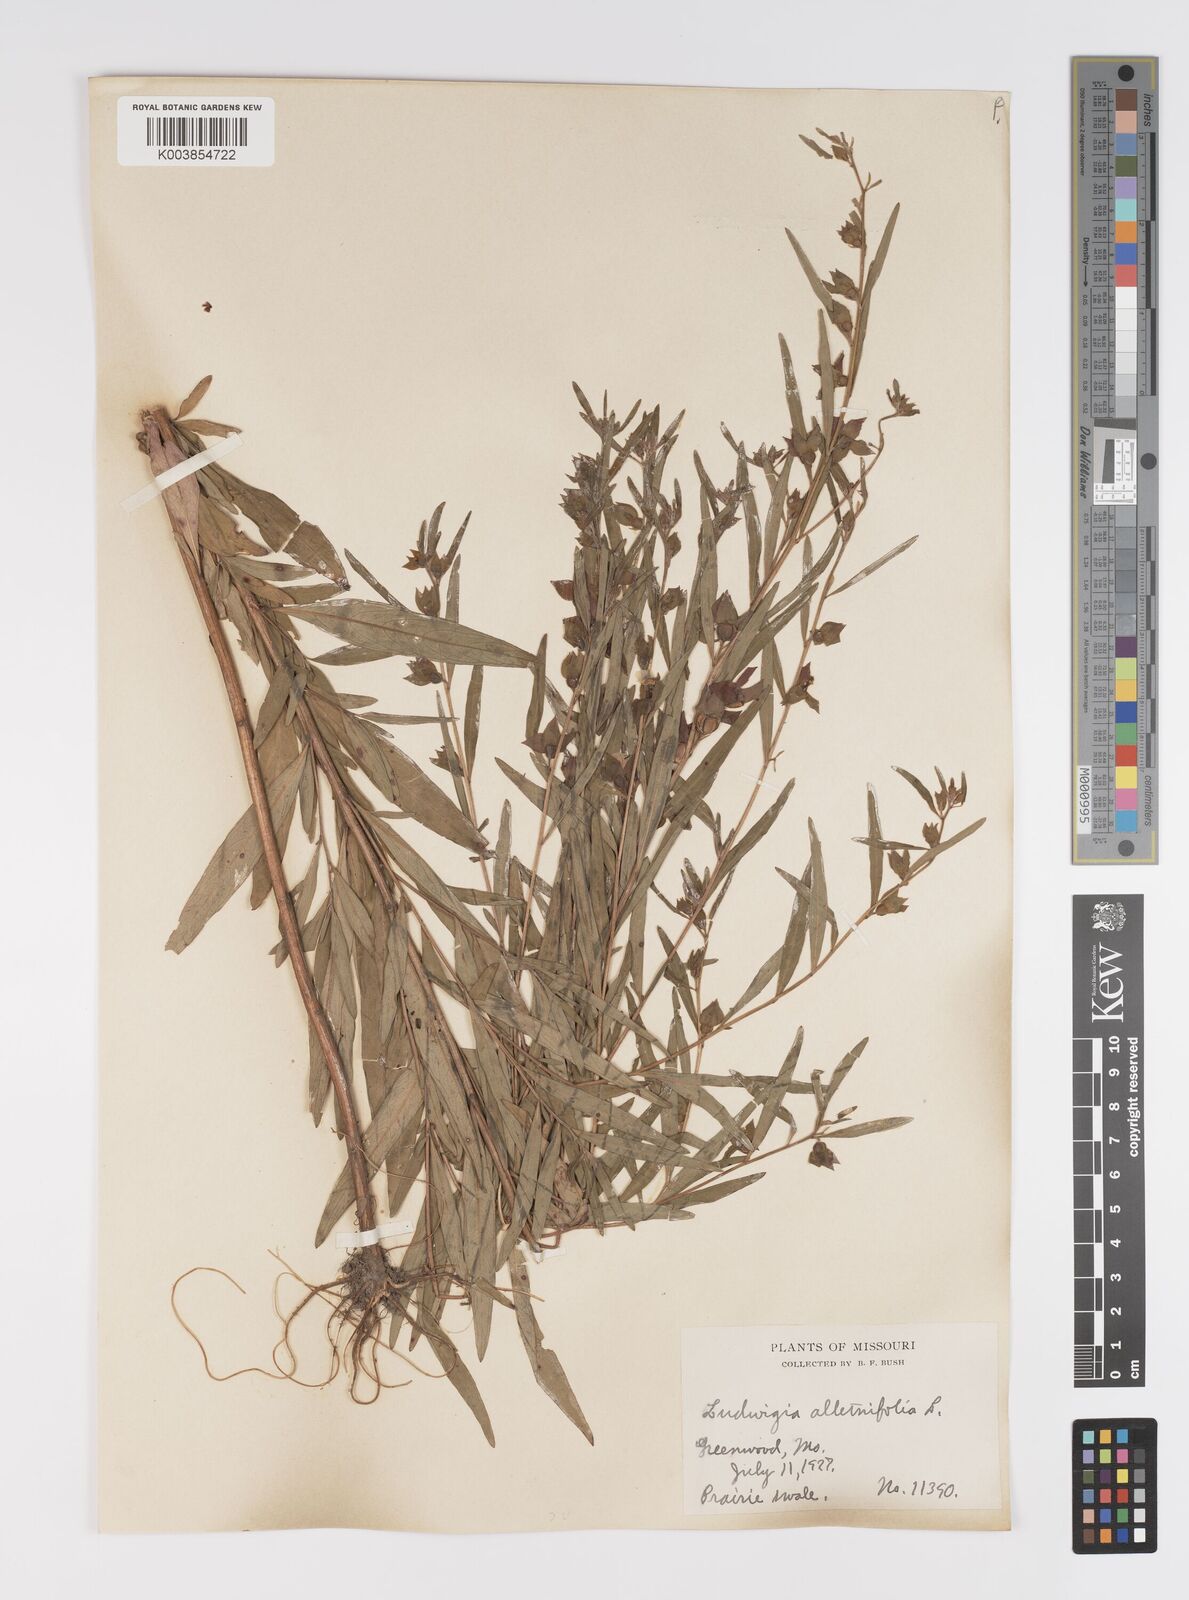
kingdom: Plantae
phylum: Tracheophyta
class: Magnoliopsida
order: Myrtales
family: Onagraceae
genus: Ludwigia
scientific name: Ludwigia alternifolia
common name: Rattlebox
